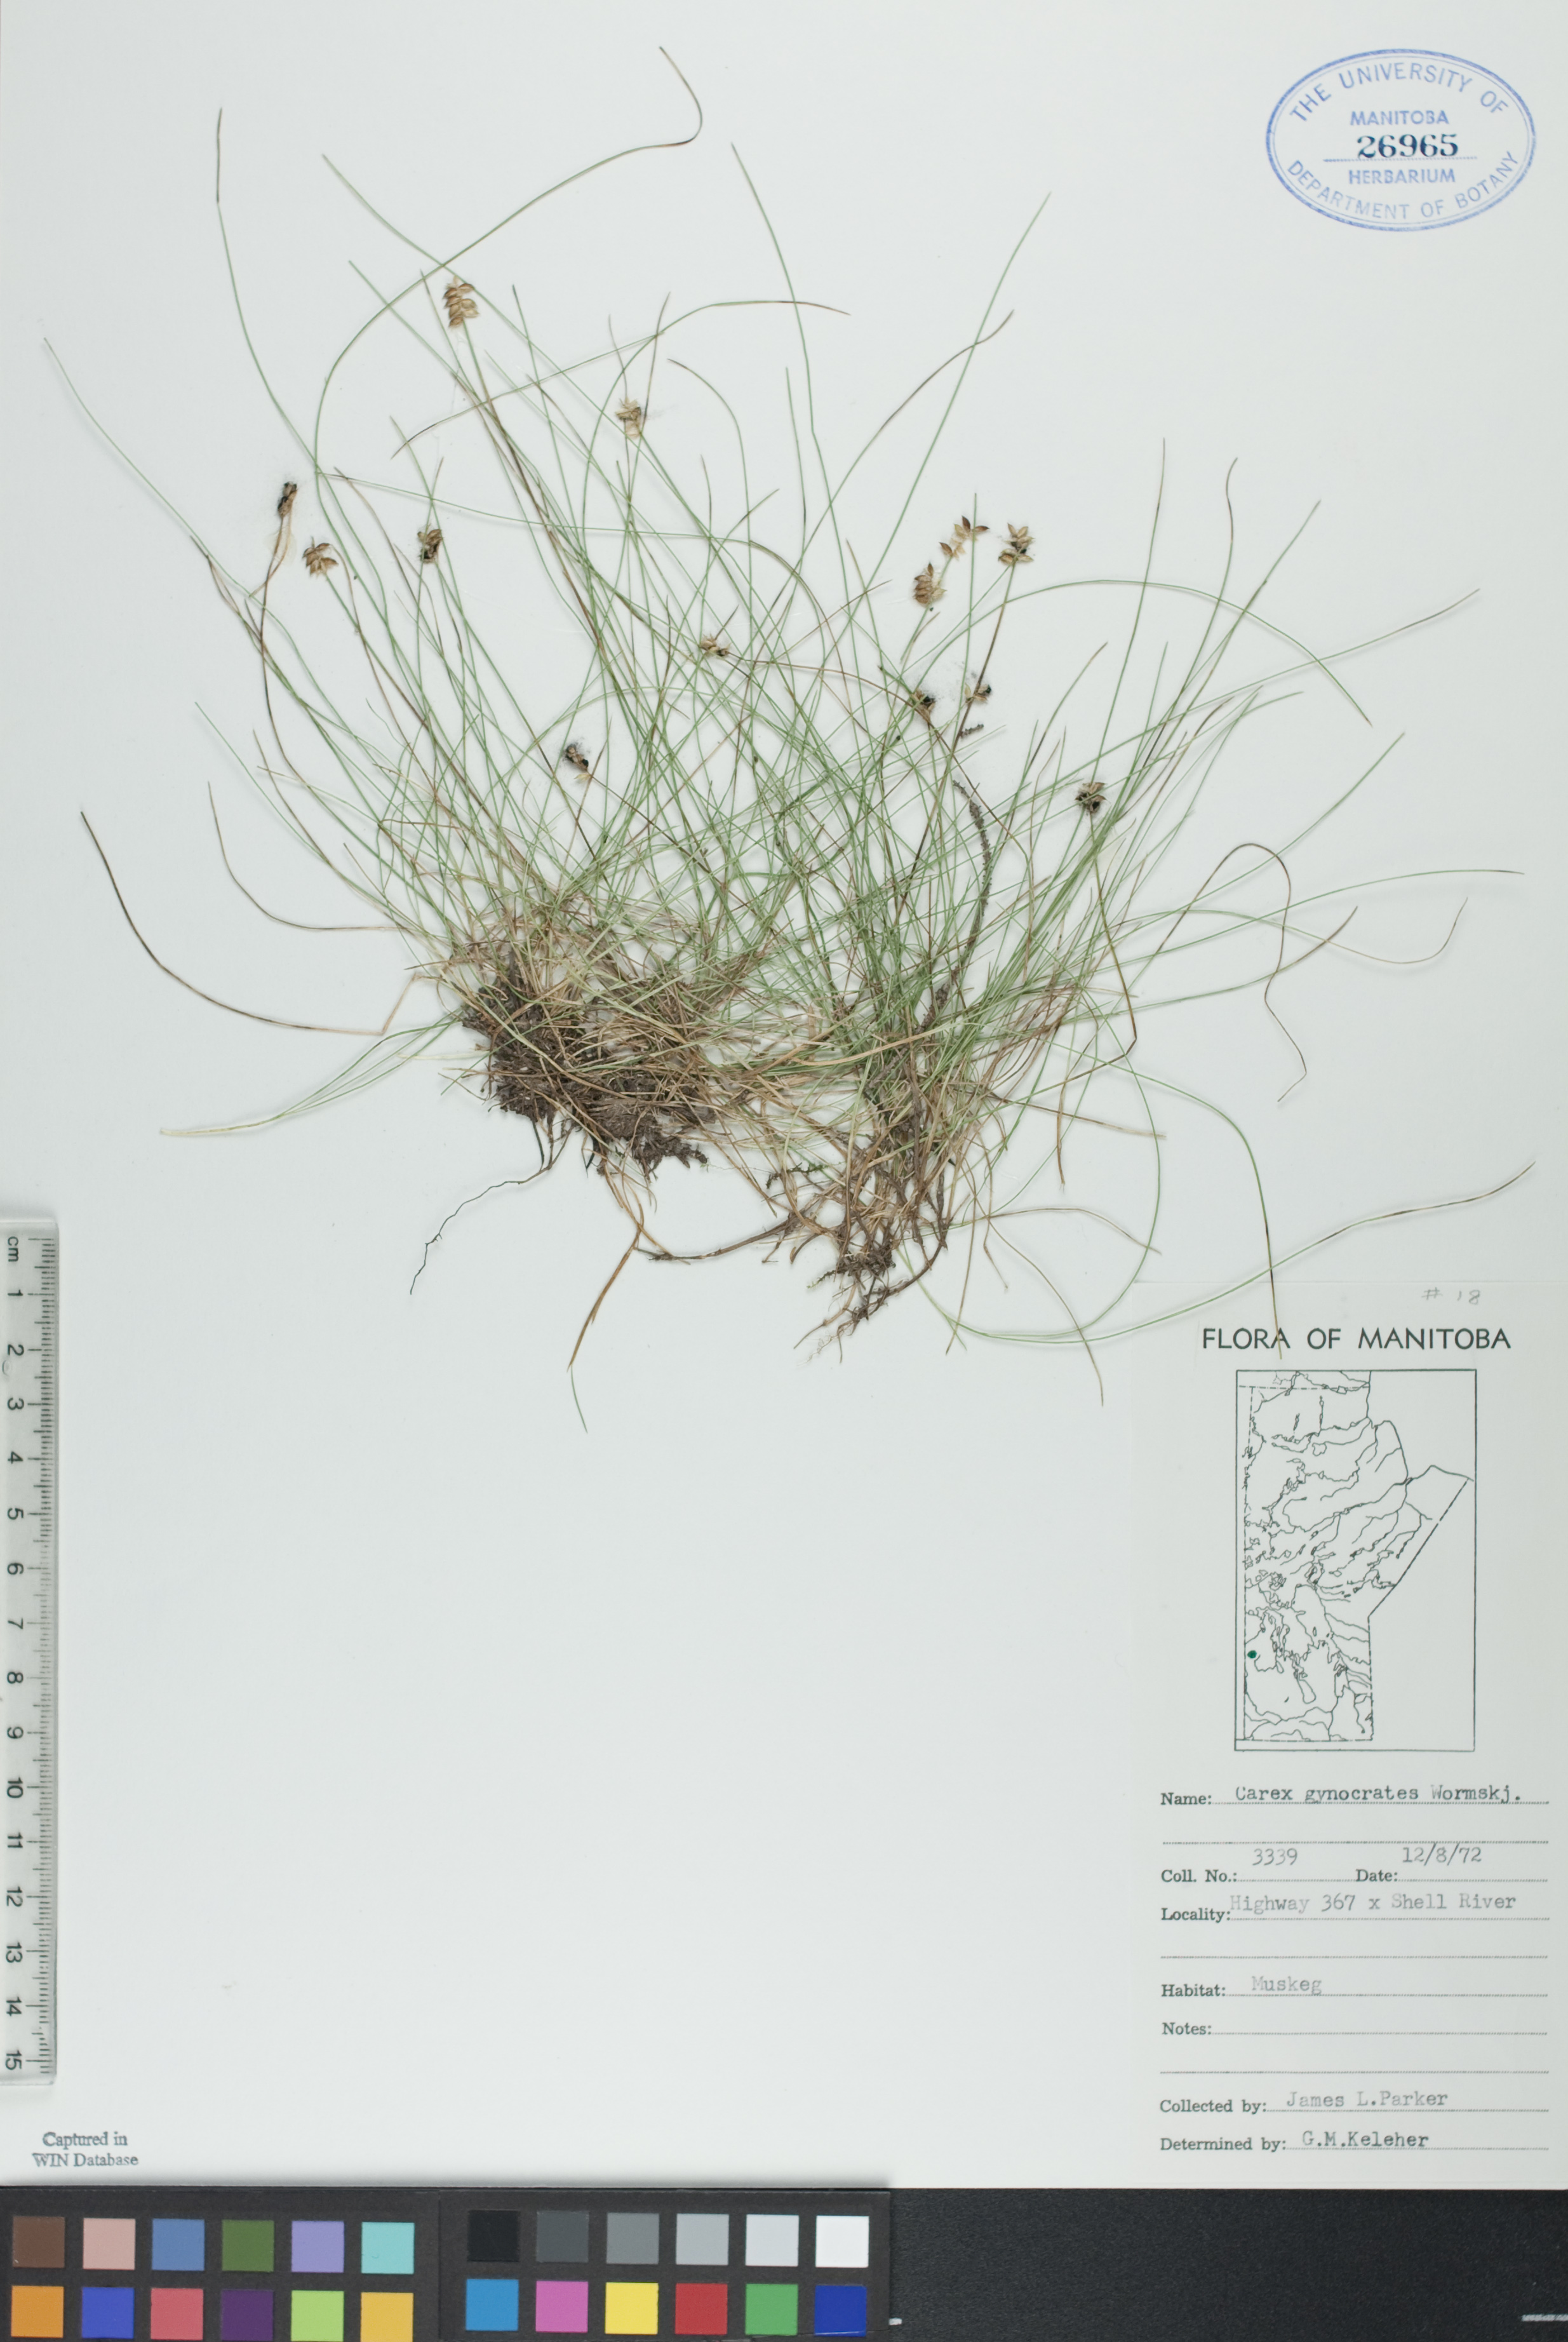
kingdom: Plantae
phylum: Tracheophyta
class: Liliopsida
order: Poales
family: Cyperaceae
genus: Carex
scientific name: Carex nardina
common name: Nard sedge
